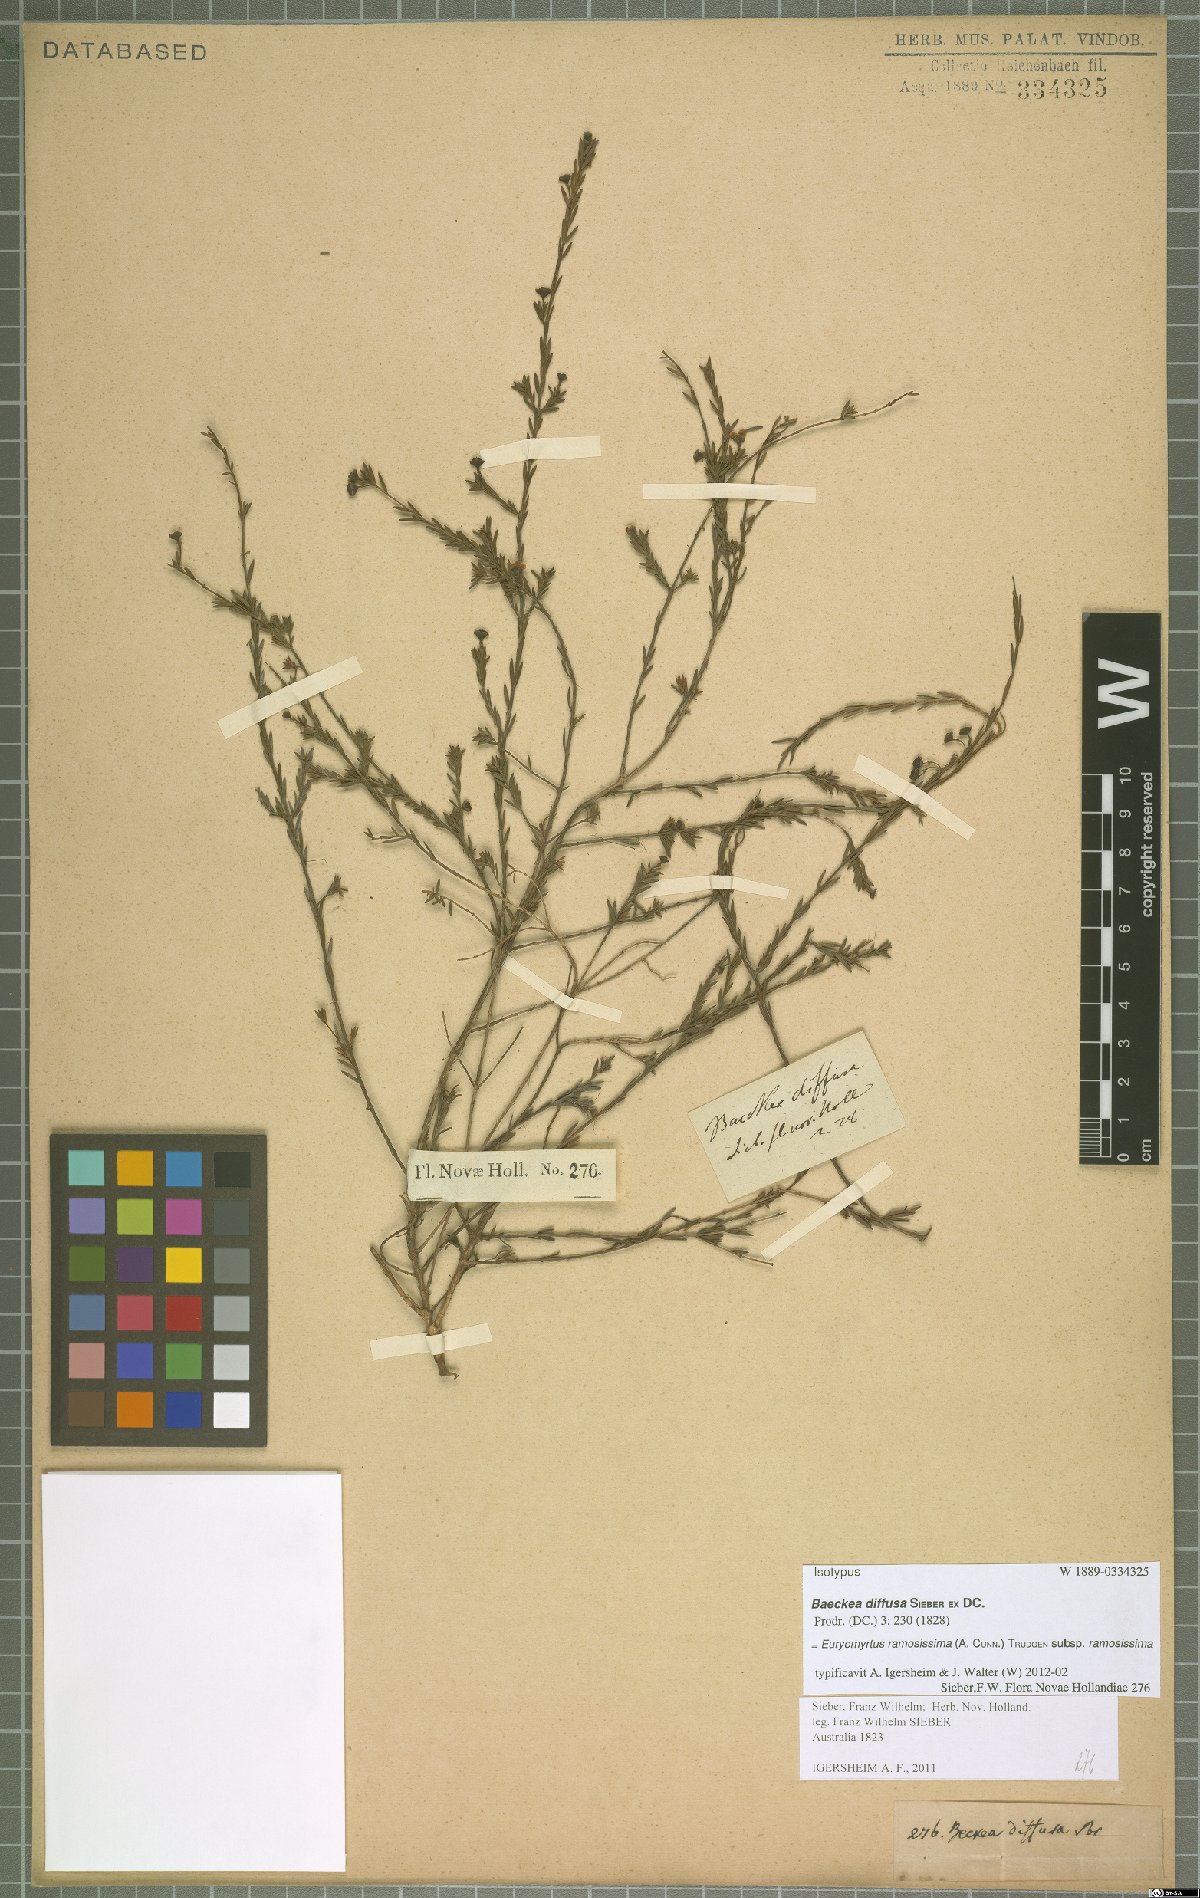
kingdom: Plantae
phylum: Tracheophyta
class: Magnoliopsida
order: Myrtales
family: Myrtaceae
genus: Euryomyrtus
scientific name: Euryomyrtus ramosissima
